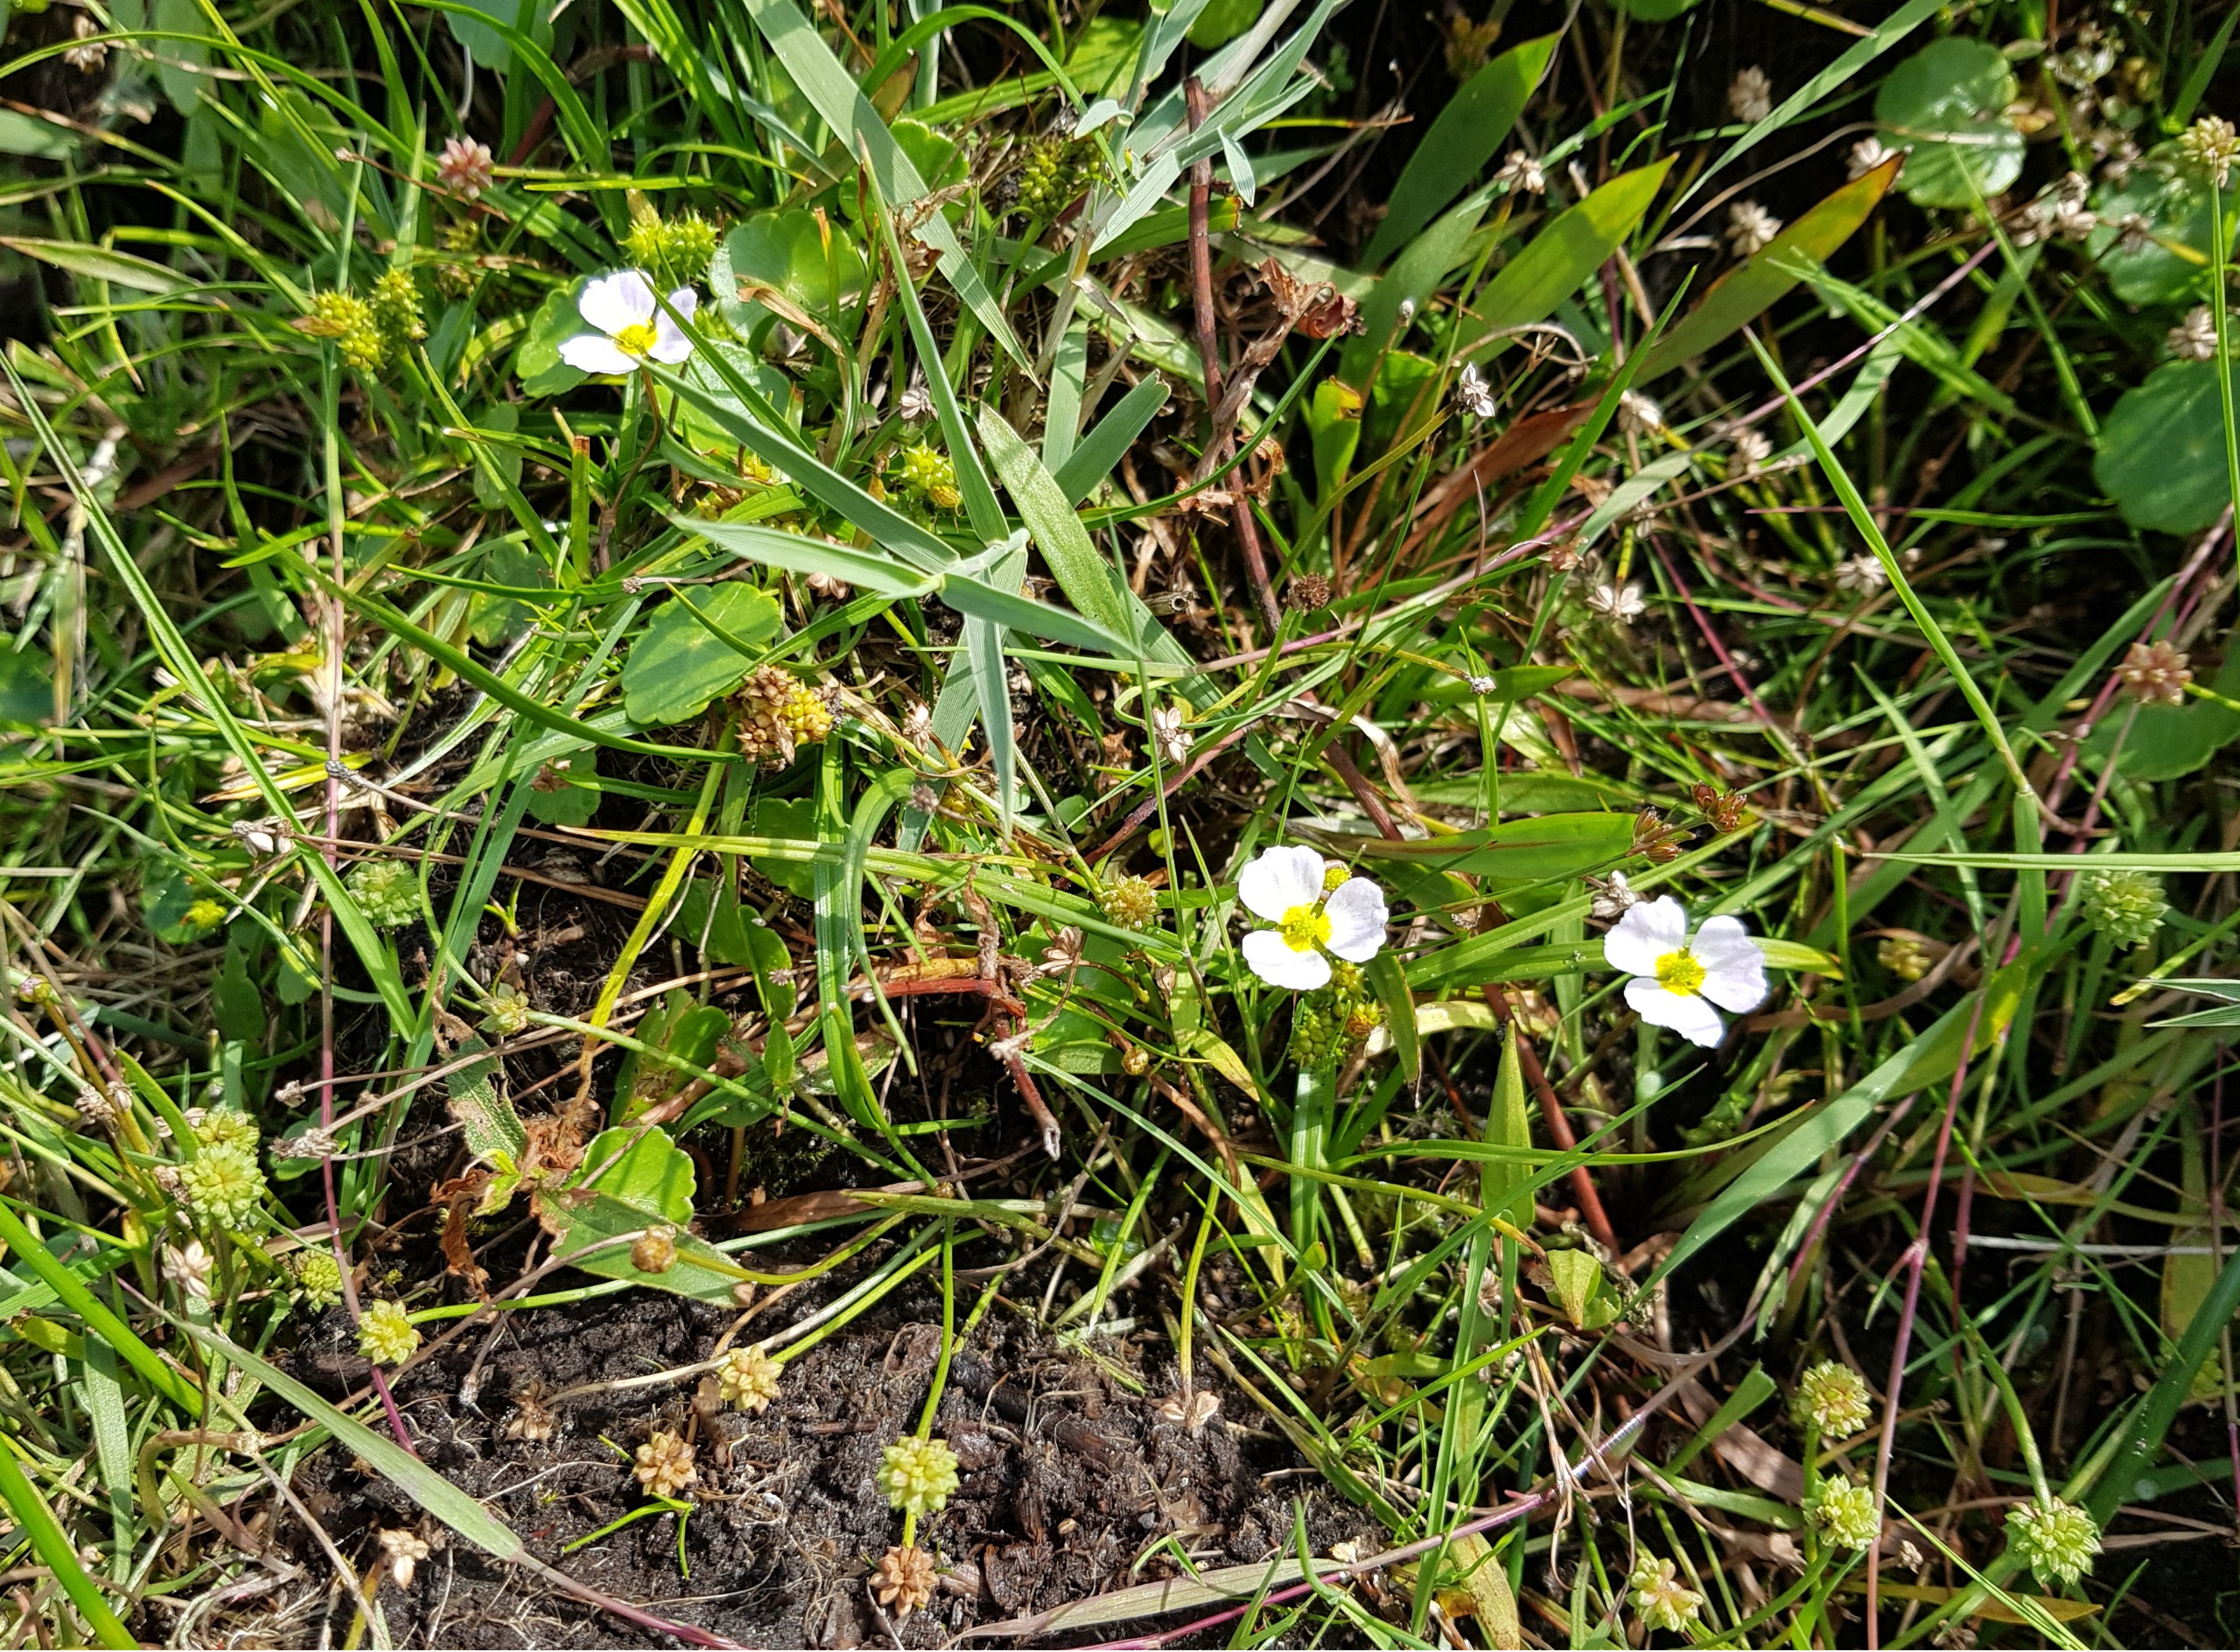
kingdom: Plantae
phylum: Tracheophyta
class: Liliopsida
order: Alismatales
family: Alismataceae
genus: Baldellia
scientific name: Baldellia ranunculoides
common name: Søpryd
